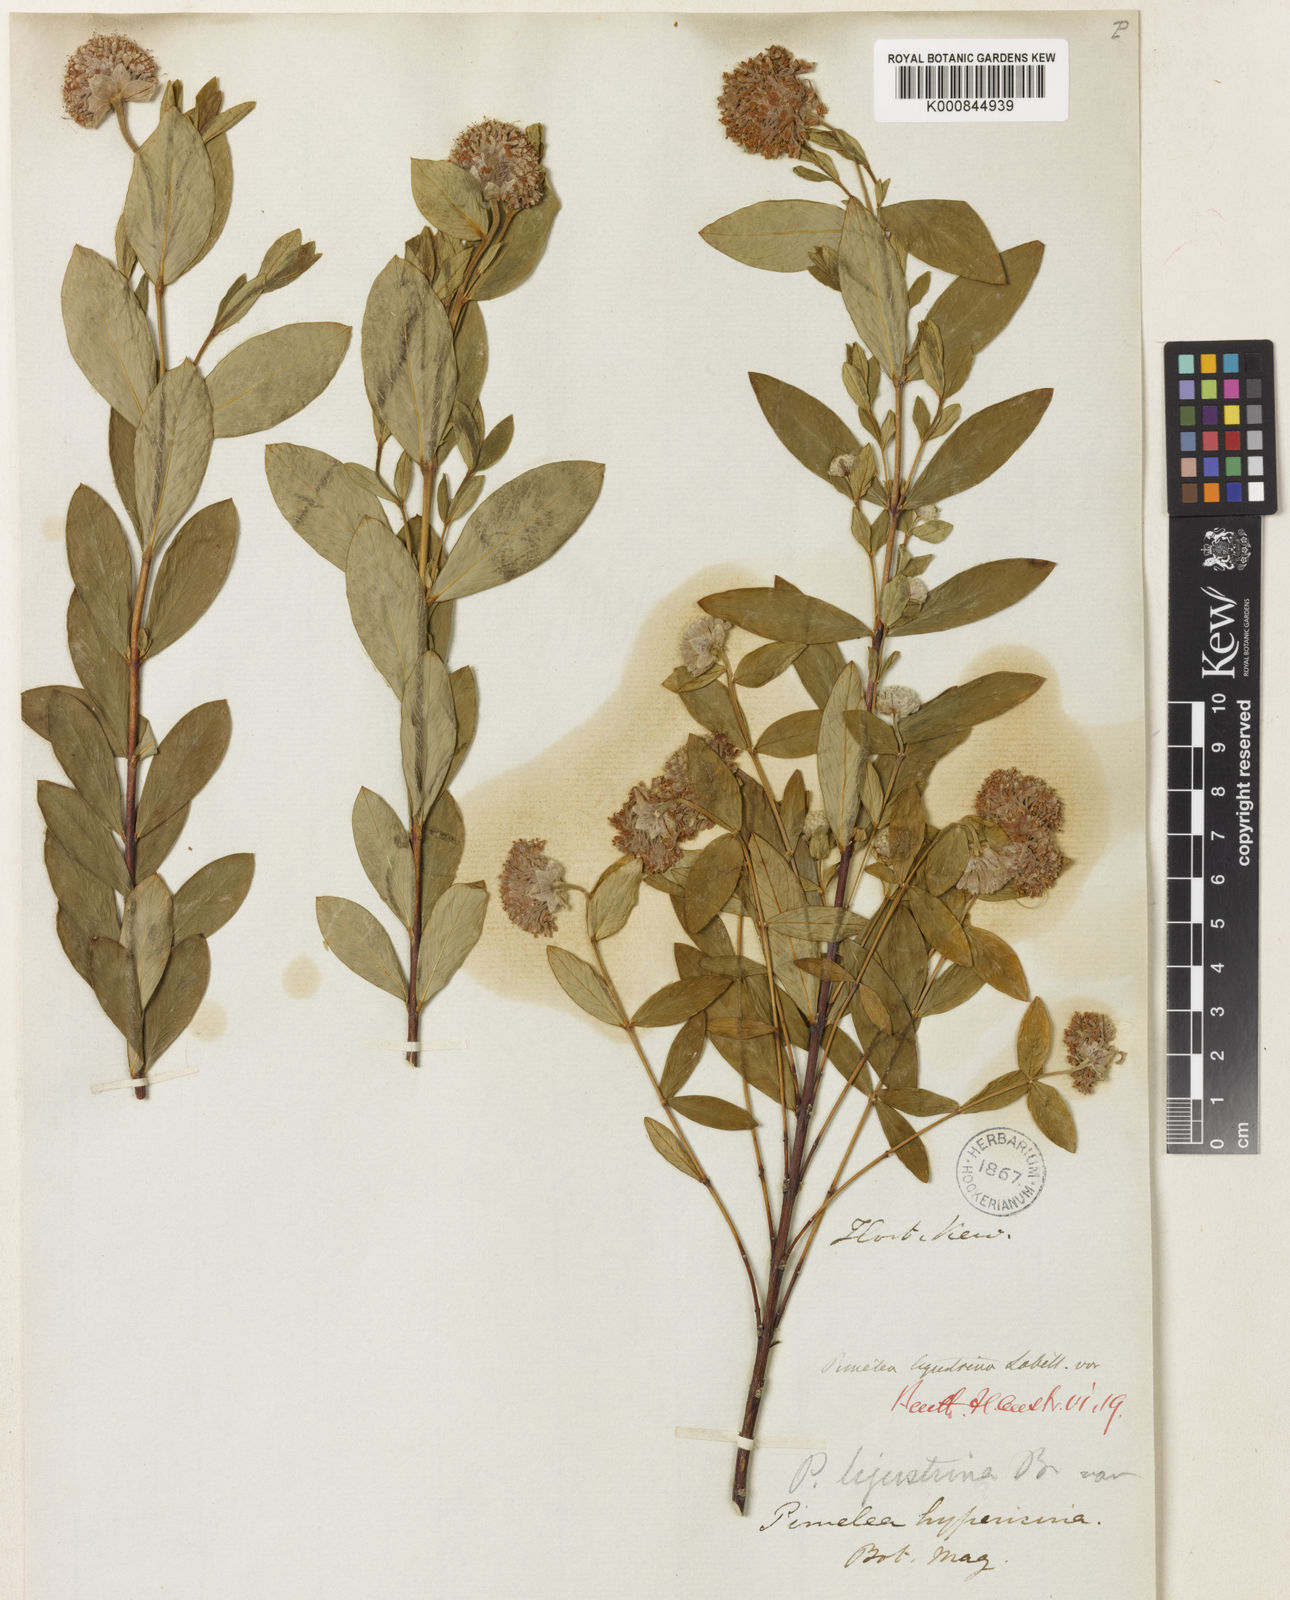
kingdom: Plantae
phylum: Tracheophyta
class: Magnoliopsida
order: Malvales
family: Thymelaeaceae
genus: Pimelea
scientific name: Pimelea ligustrina
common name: Tall riceflower
